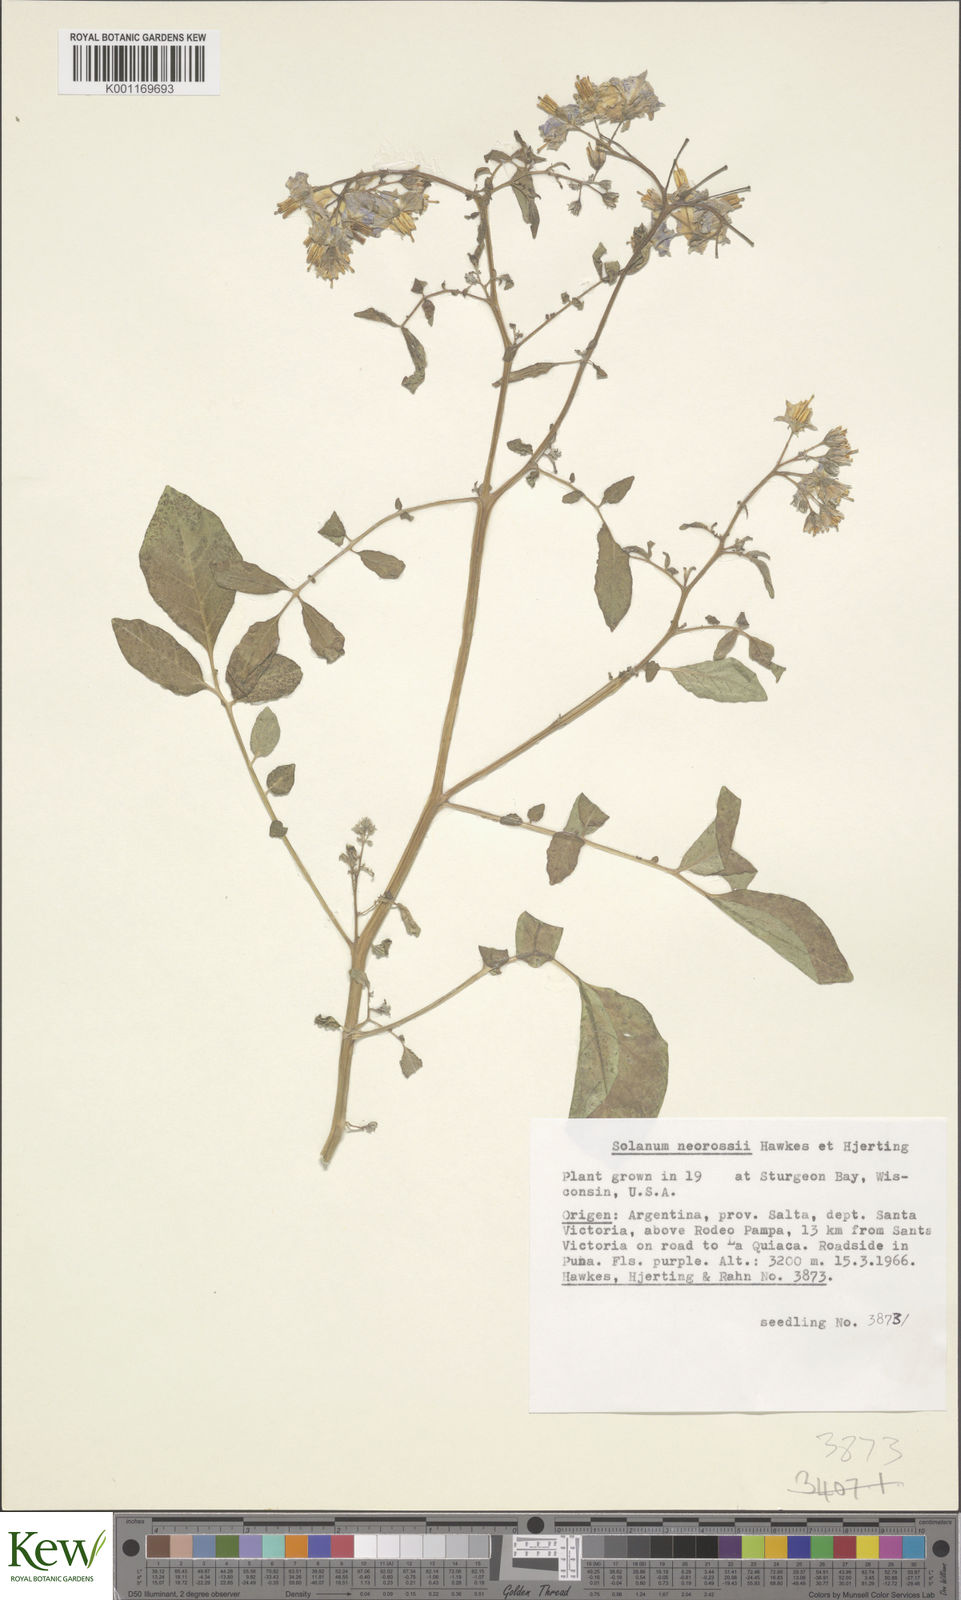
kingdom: Plantae
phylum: Tracheophyta
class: Magnoliopsida
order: Solanales
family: Solanaceae
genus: Solanum
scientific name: Solanum neorossii
